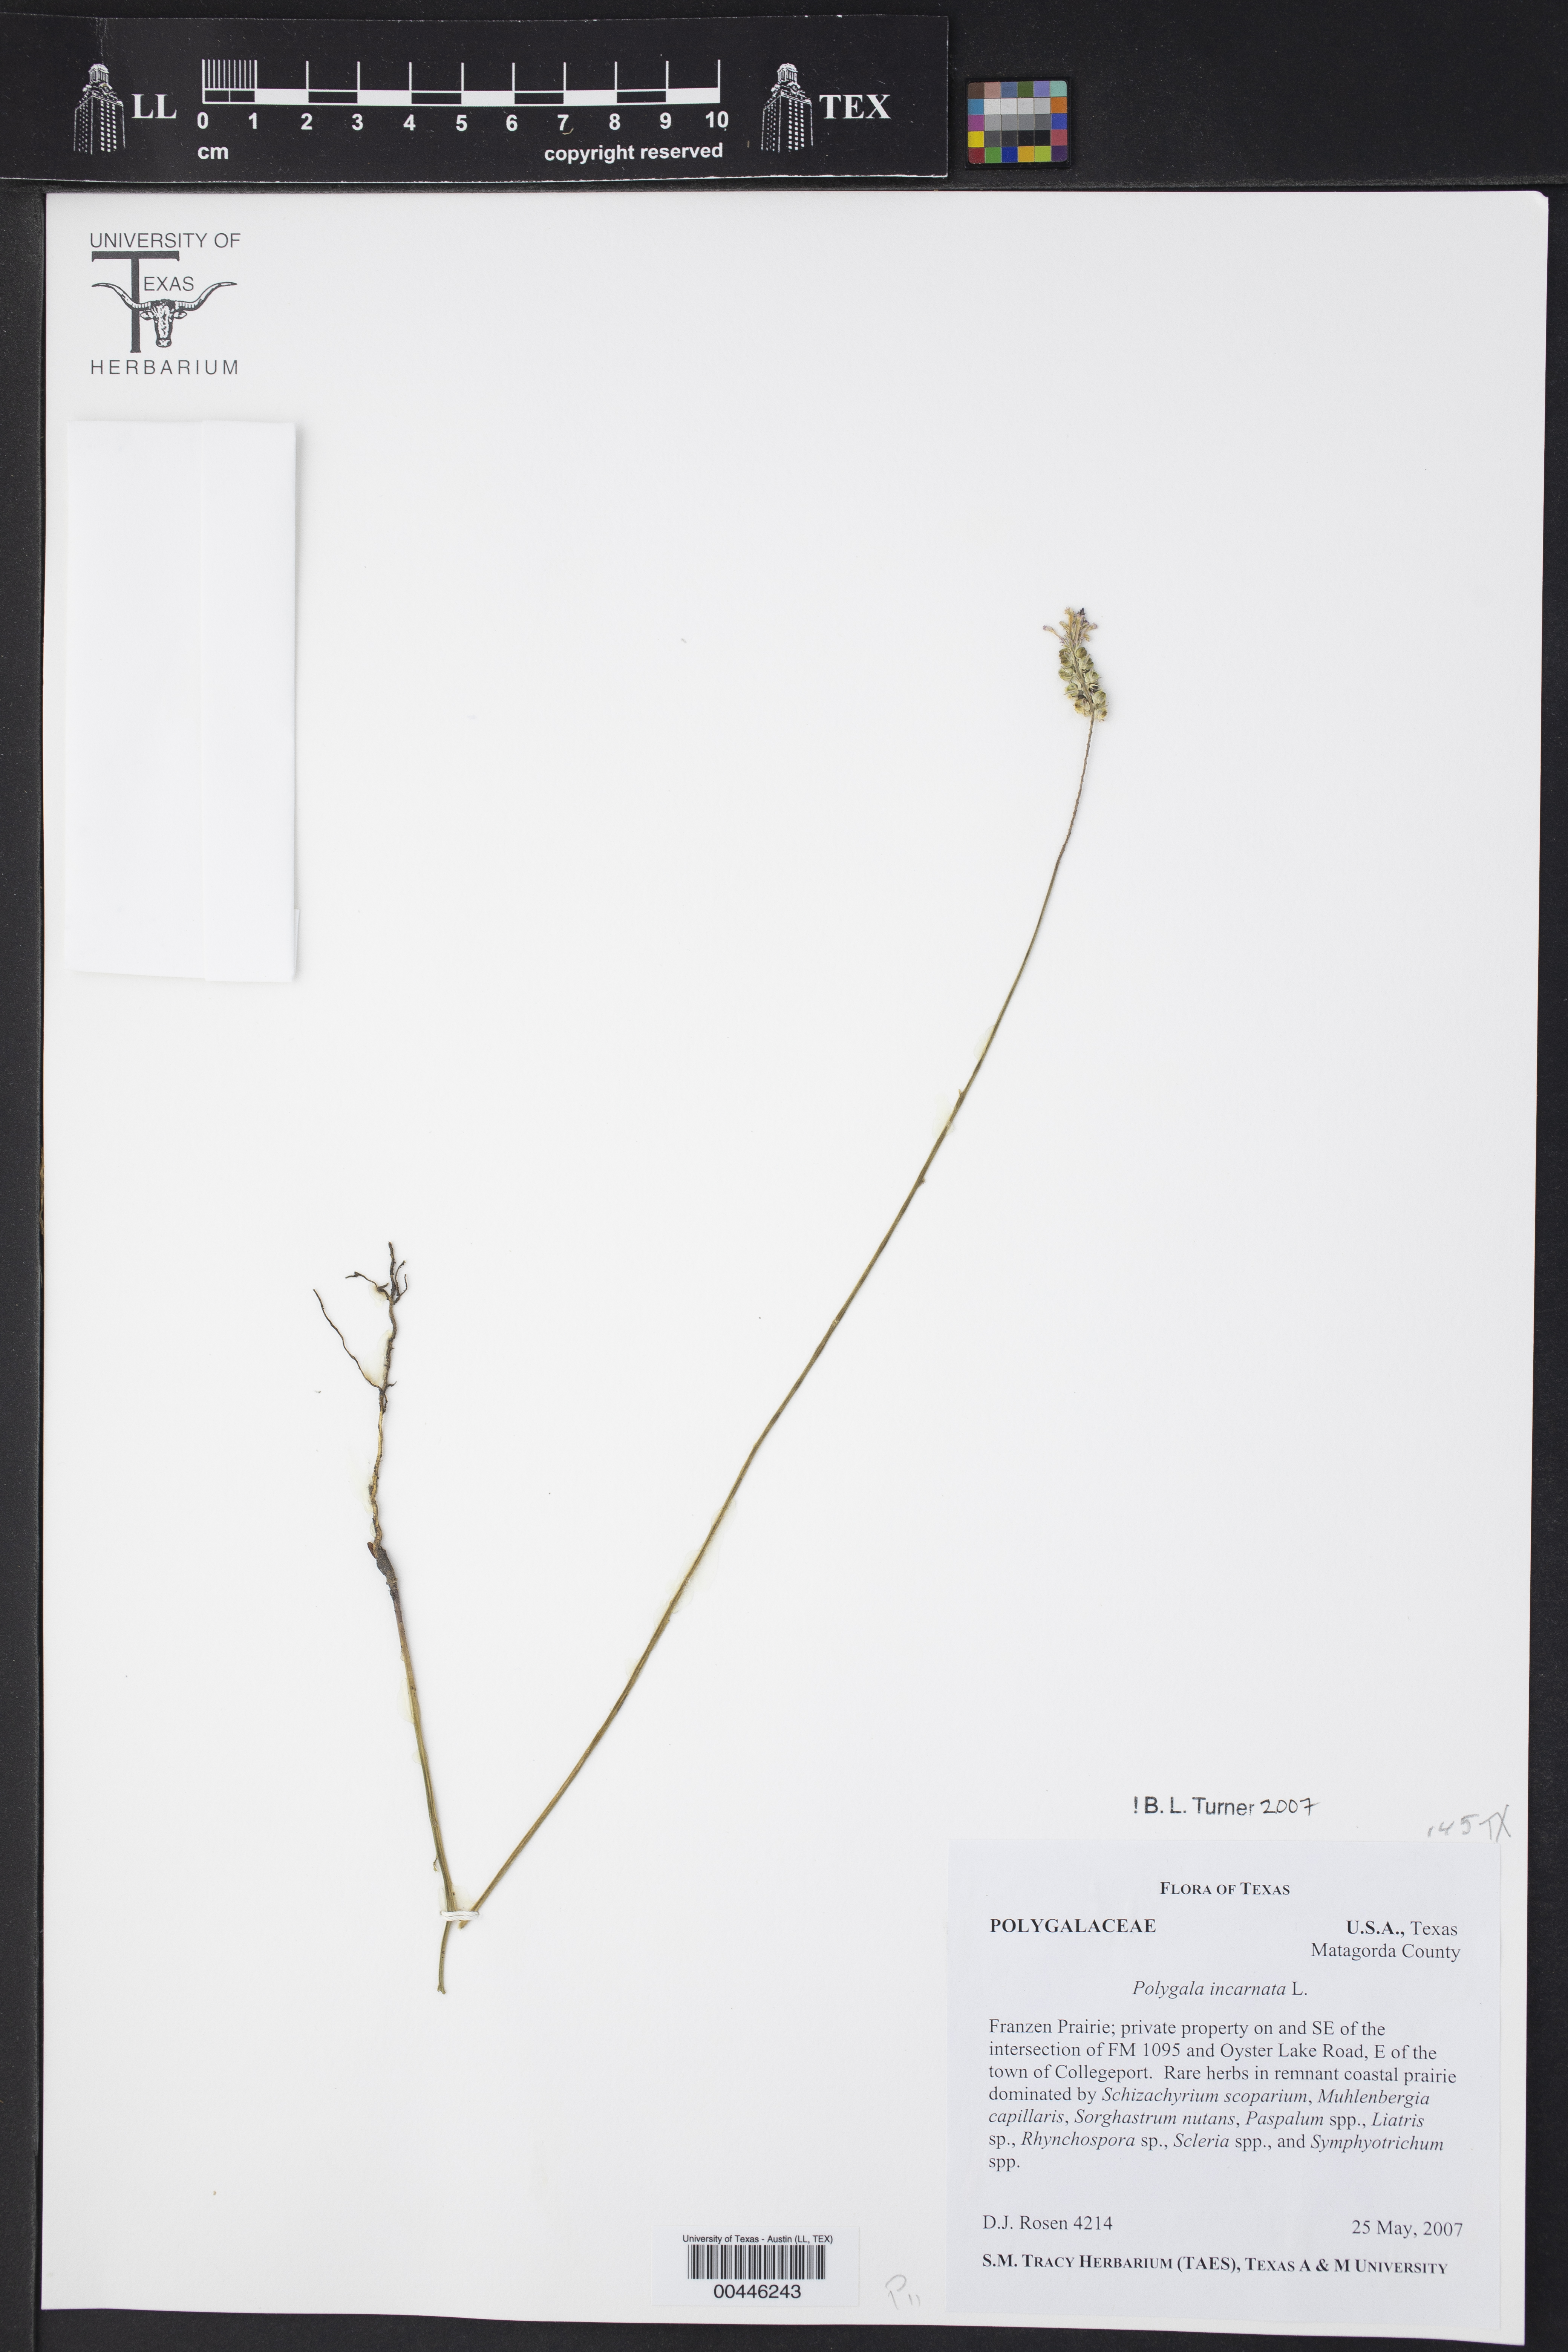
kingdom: Plantae
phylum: Tracheophyta
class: Magnoliopsida
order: Fabales
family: Polygalaceae
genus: Polygala
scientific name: Polygala incarnata
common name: Pink milkwort
